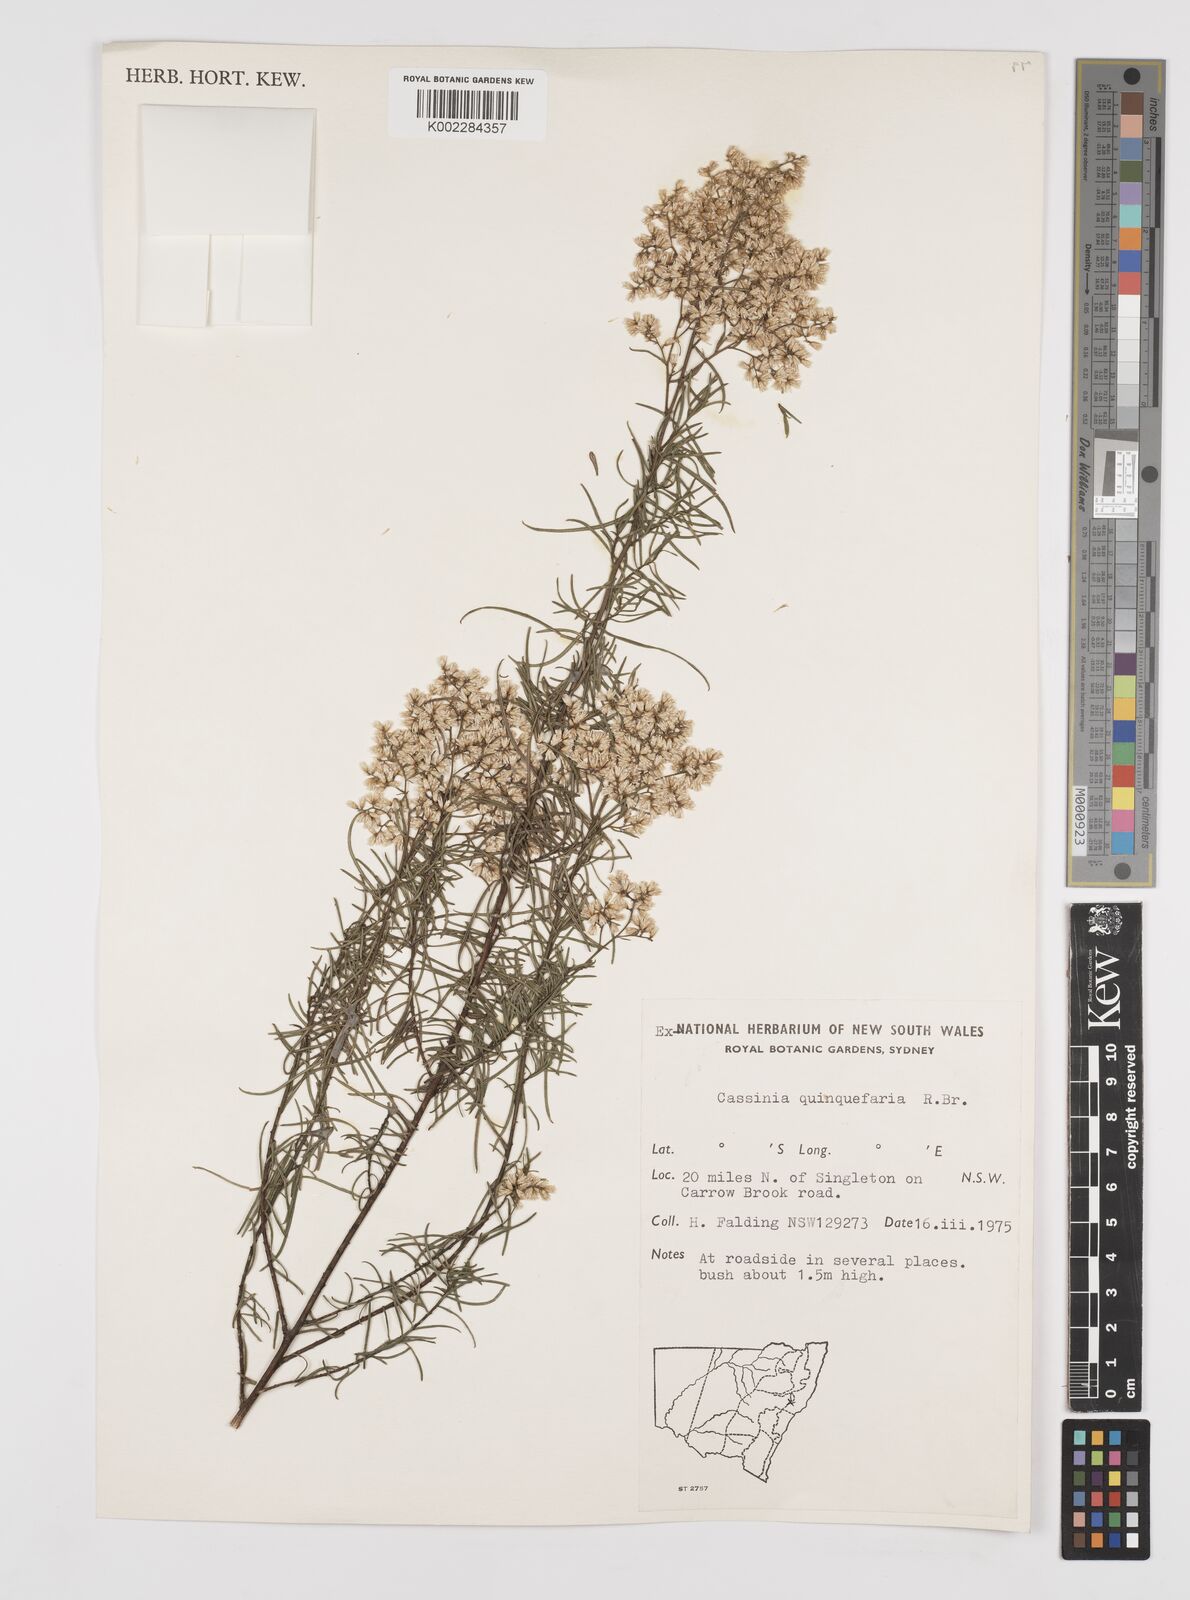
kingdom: Plantae
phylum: Tracheophyta
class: Magnoliopsida
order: Asterales
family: Asteraceae
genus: Cassinia
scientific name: Cassinia quinquefaria
